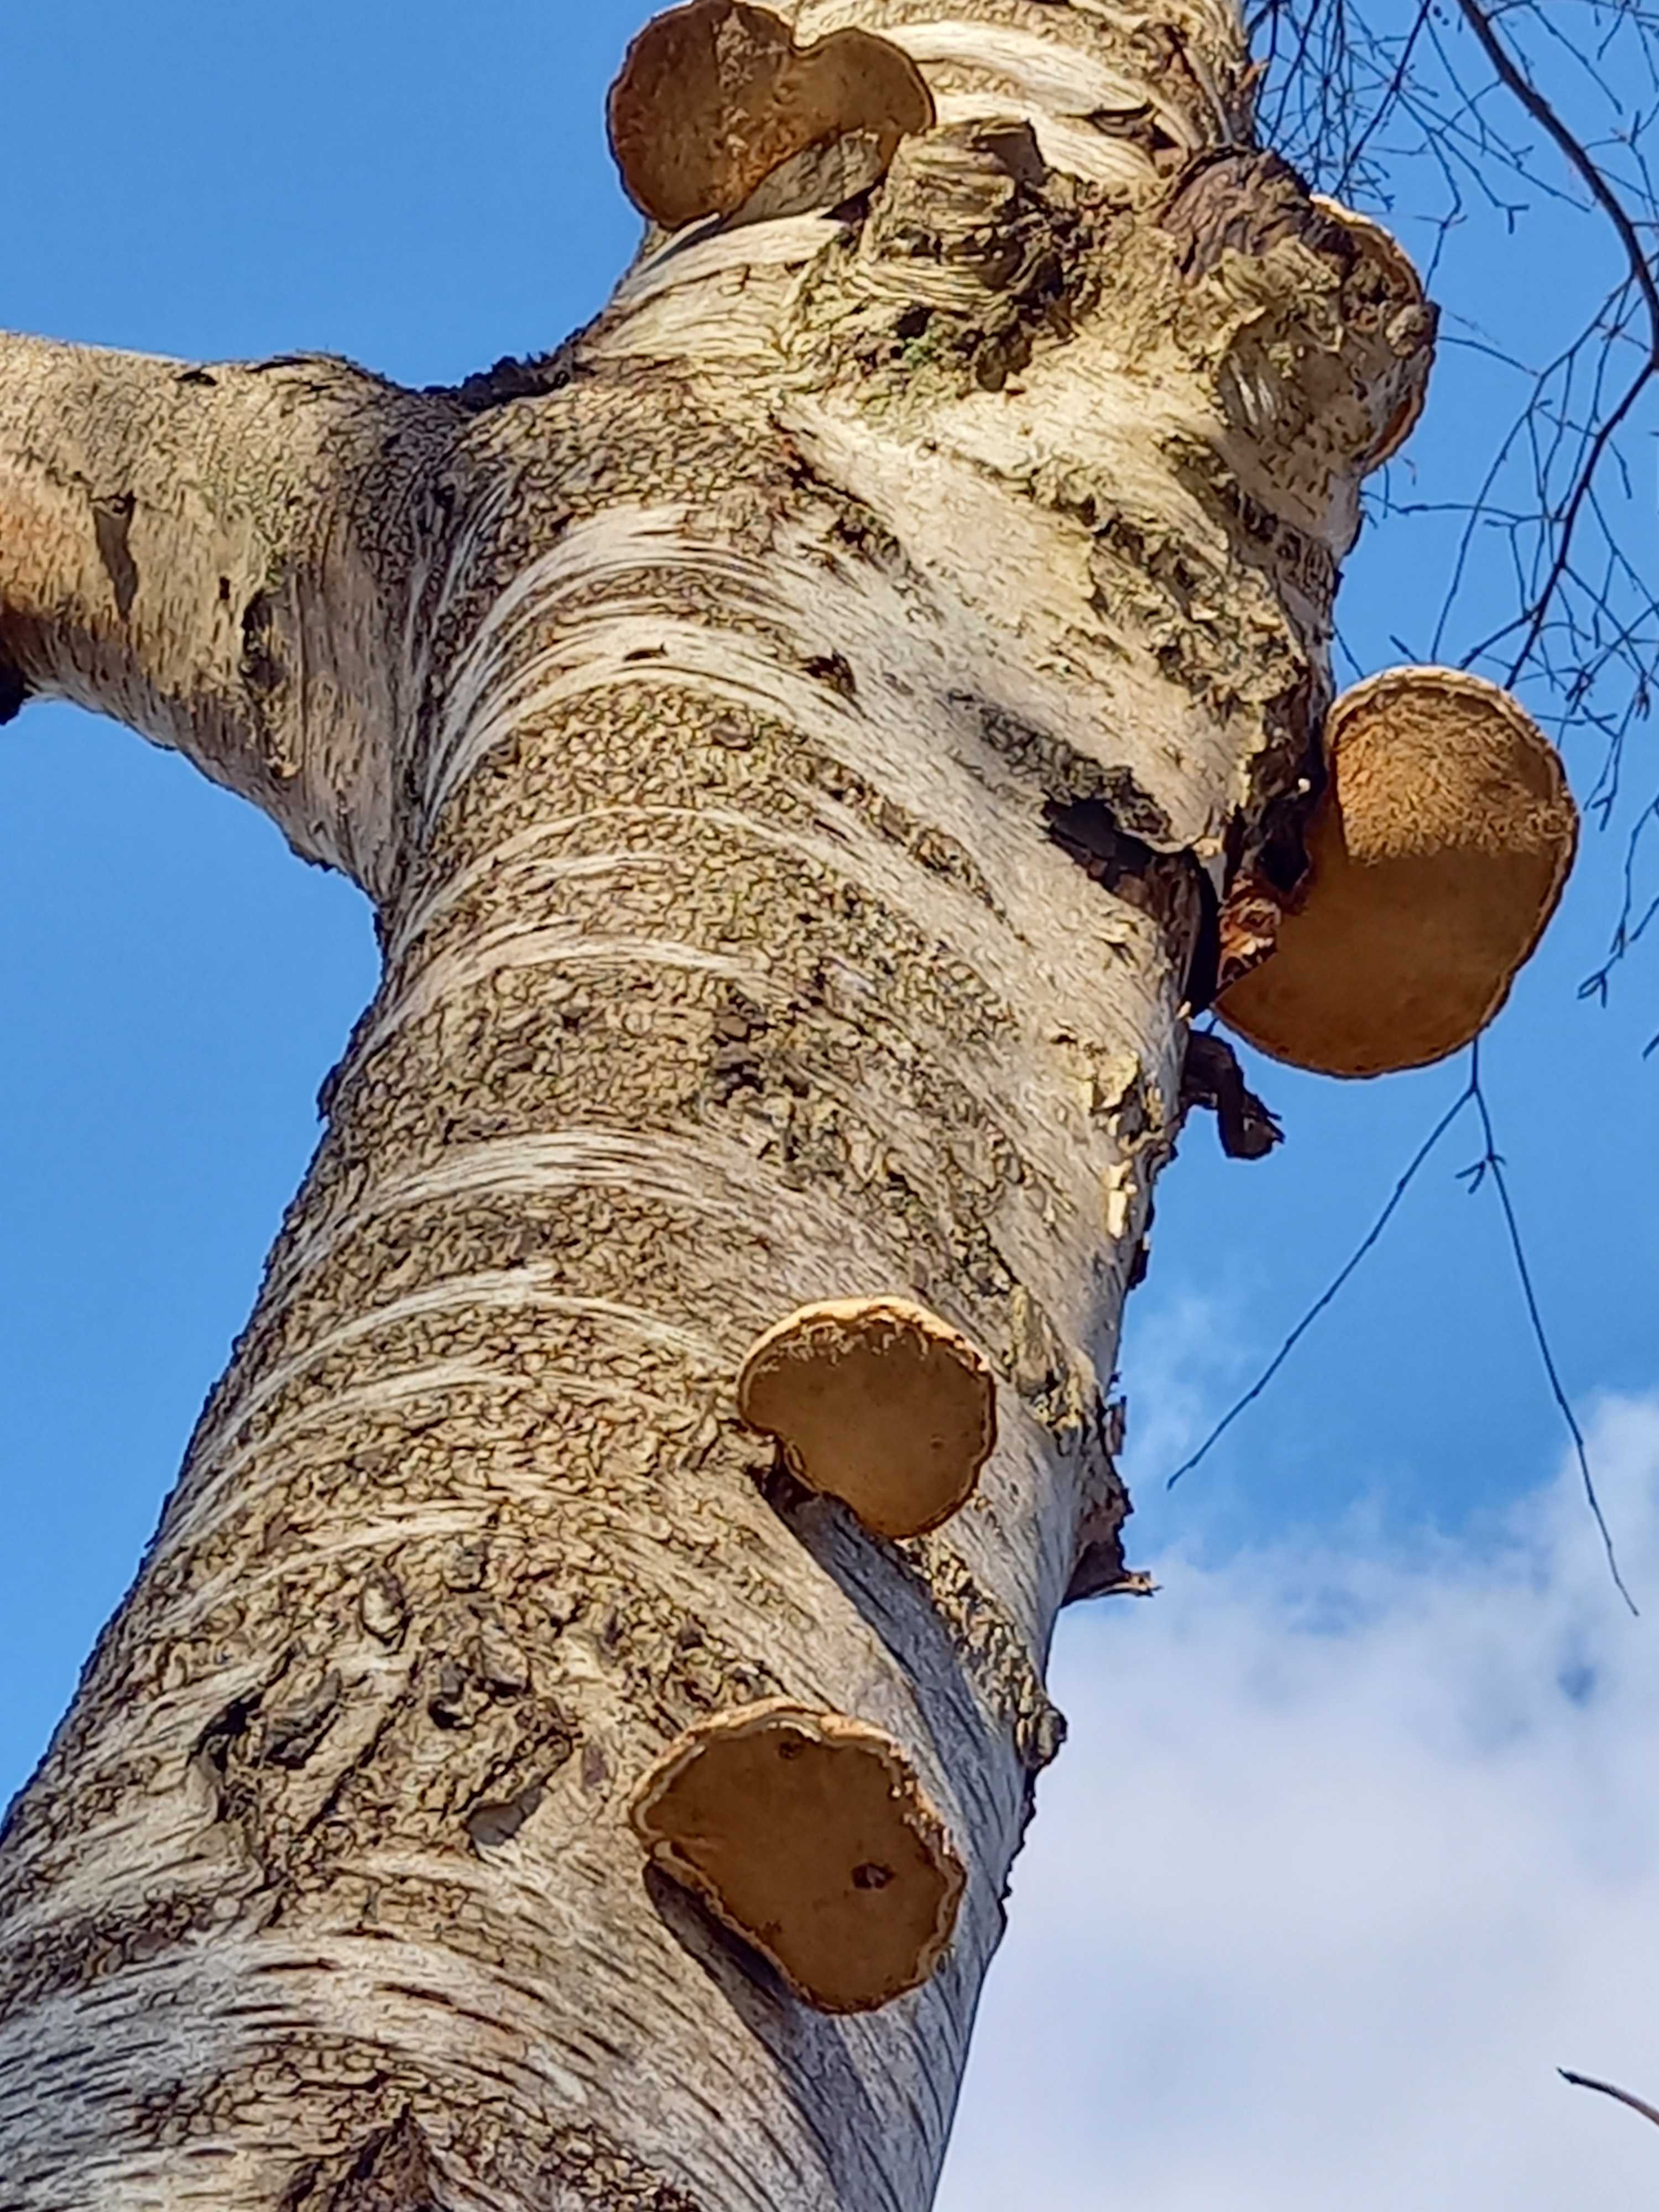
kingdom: Fungi
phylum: Basidiomycota
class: Agaricomycetes
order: Polyporales
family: Fomitopsidaceae
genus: Fomitopsis
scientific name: Fomitopsis betulina
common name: birkeporesvamp
